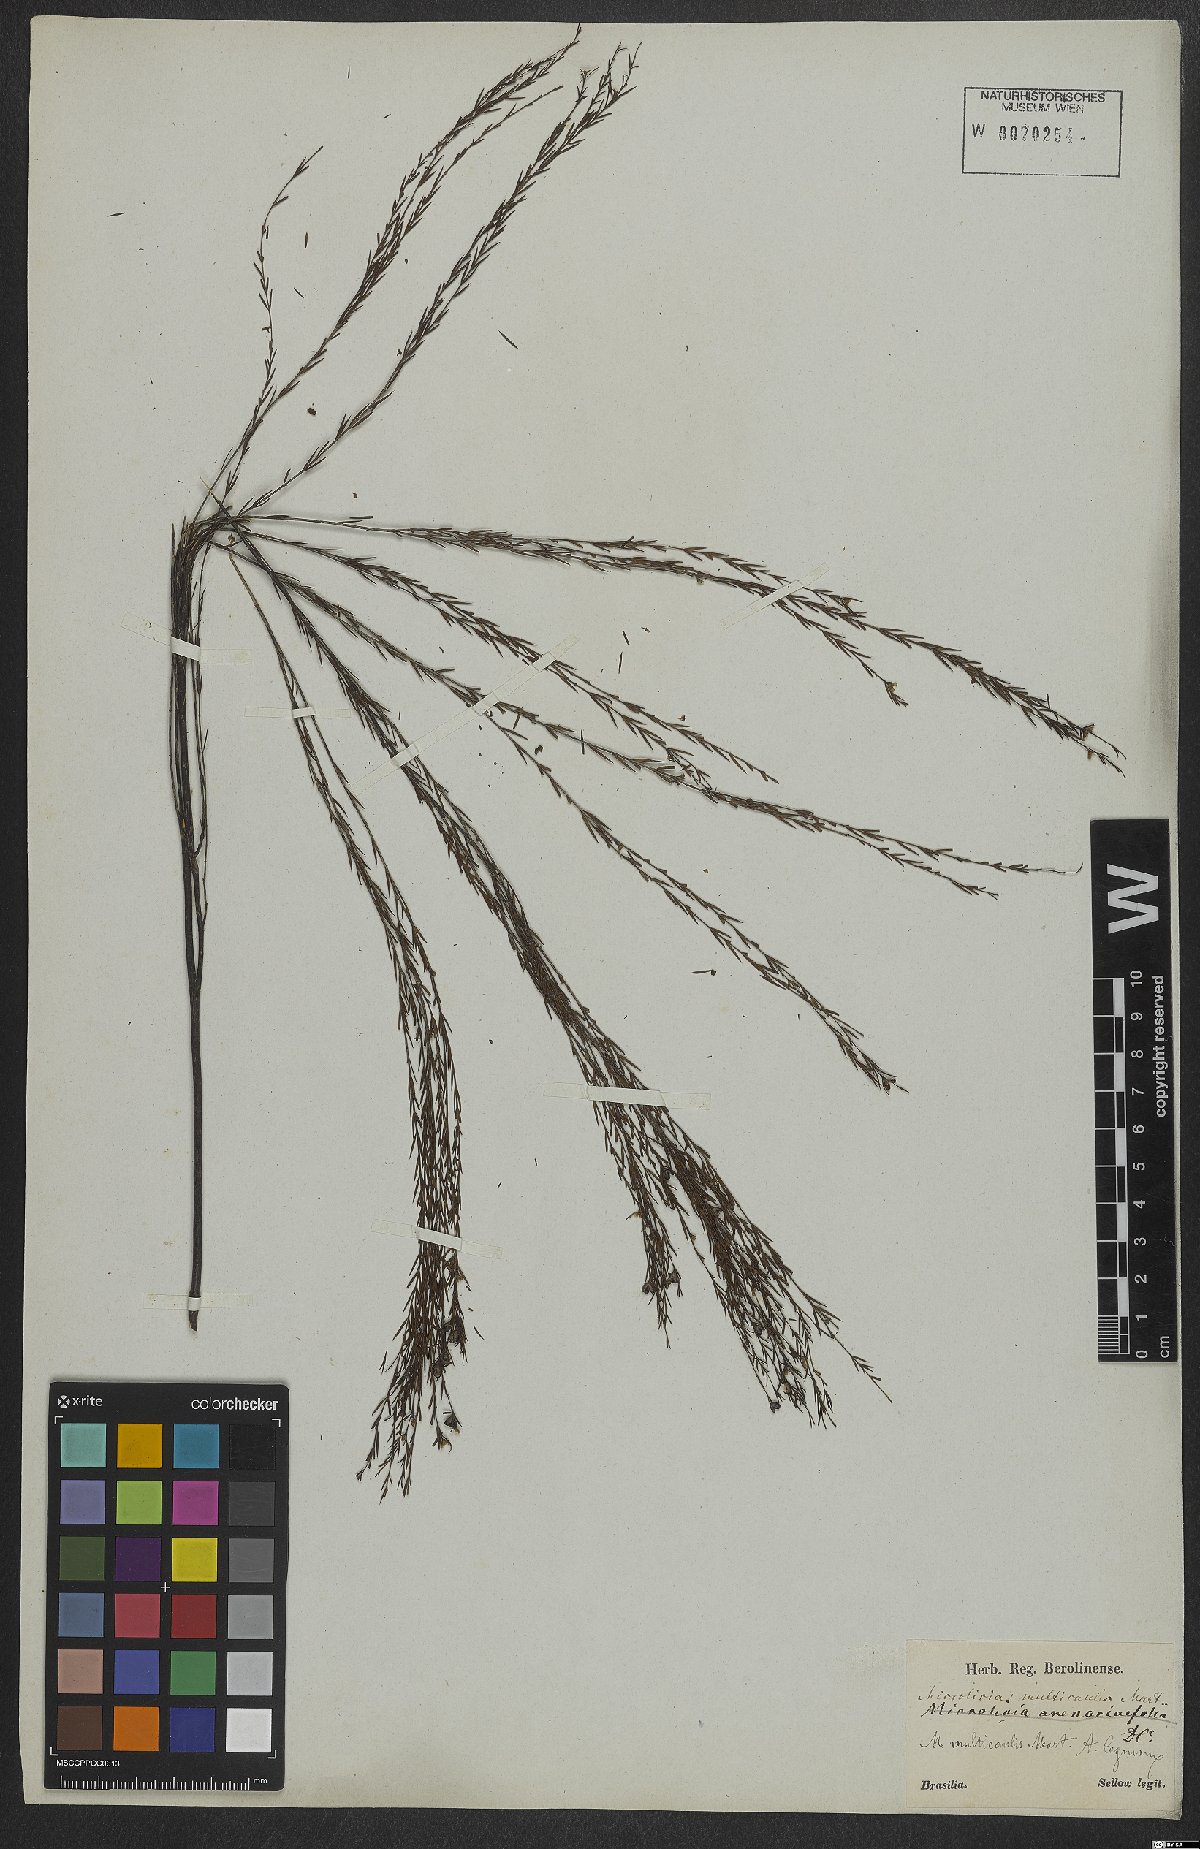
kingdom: Plantae
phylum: Tracheophyta
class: Magnoliopsida
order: Myrtales
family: Melastomataceae
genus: Microlicia
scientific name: Microlicia multicaulis
